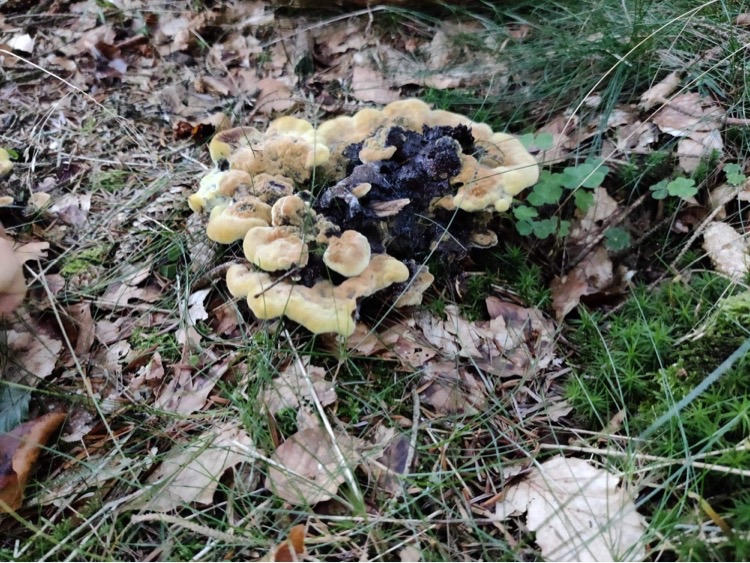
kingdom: Fungi
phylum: Basidiomycota
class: Agaricomycetes
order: Polyporales
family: Laetiporaceae
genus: Phaeolus
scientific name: Phaeolus schweinitzii
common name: brunporesvamp
